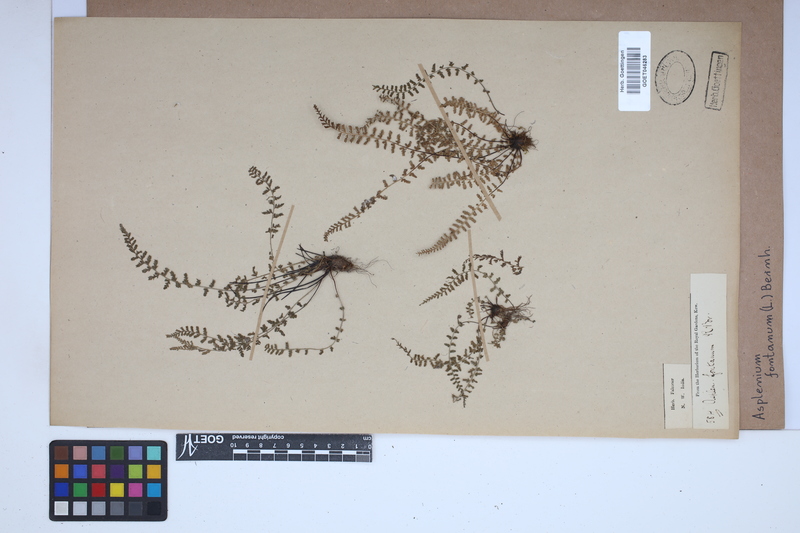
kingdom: Plantae
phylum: Tracheophyta
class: Polypodiopsida
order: Polypodiales
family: Aspleniaceae
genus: Asplenium
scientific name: Asplenium fontanum
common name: Fountain spleenwort
